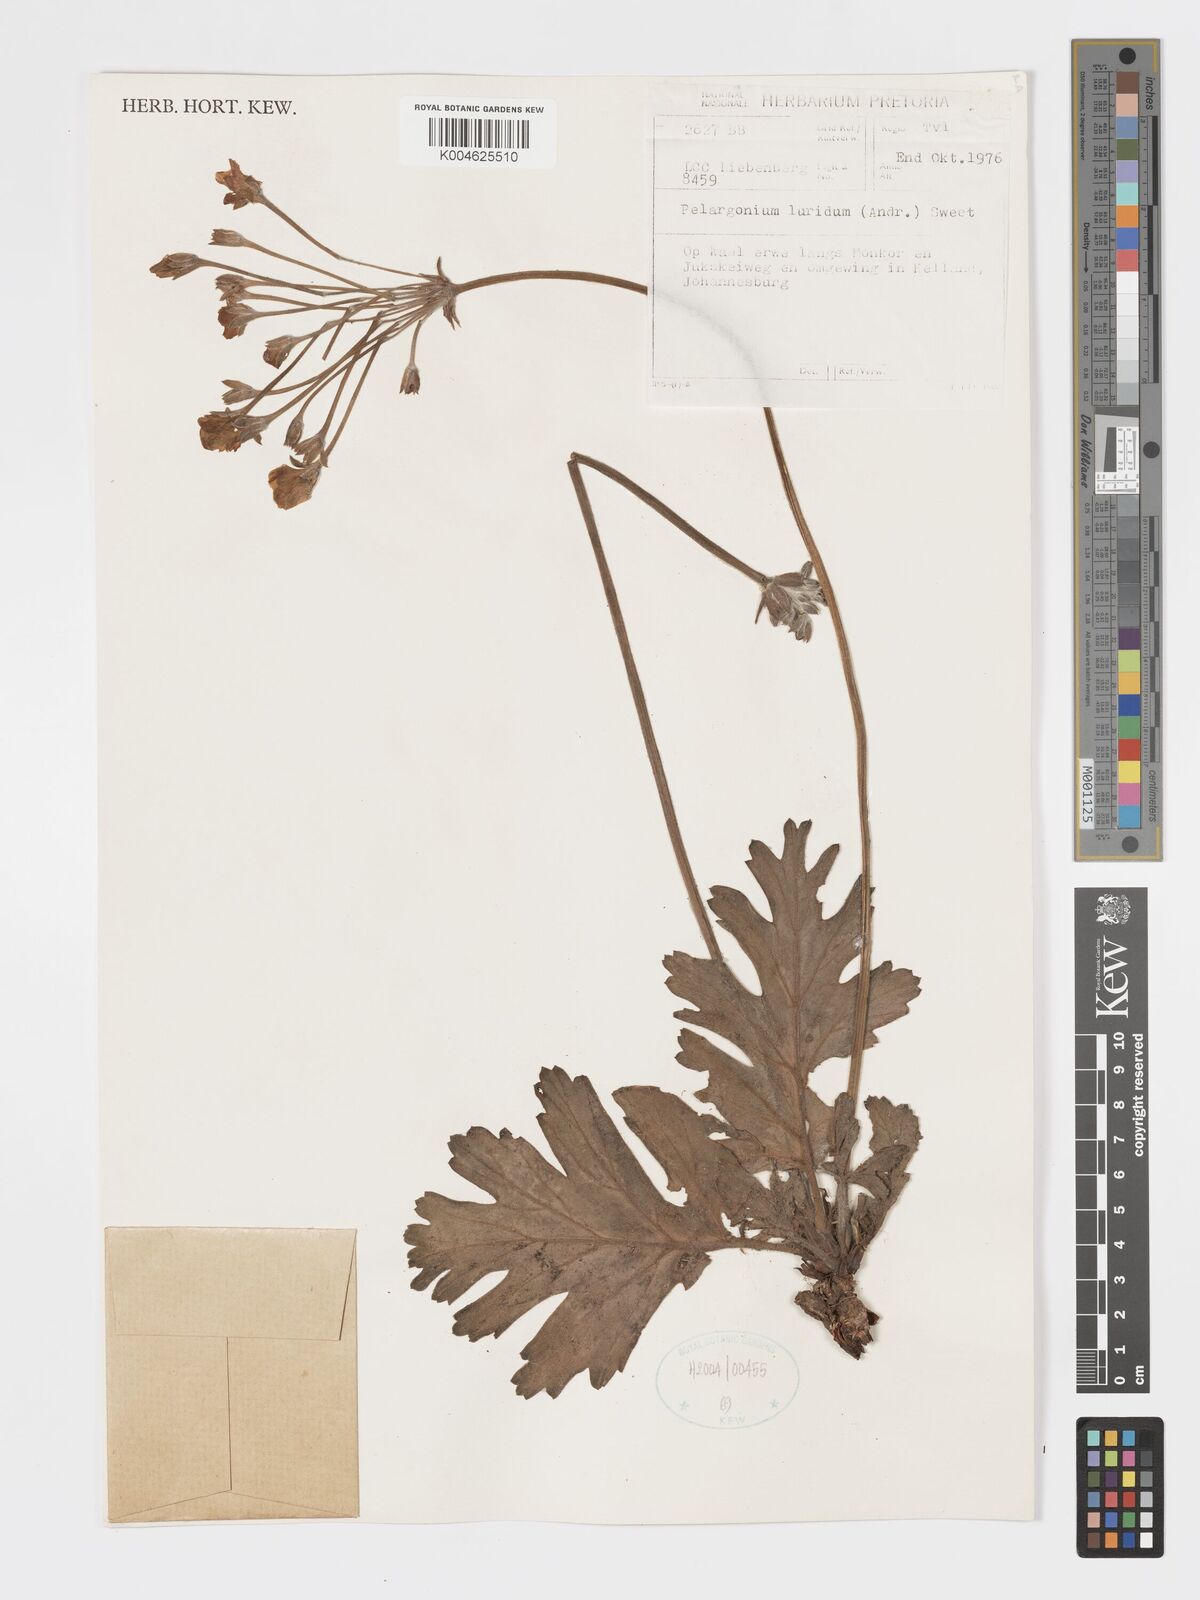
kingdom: Plantae
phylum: Tracheophyta
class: Magnoliopsida
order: Geraniales
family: Geraniaceae
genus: Pelargonium
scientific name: Pelargonium luridum
